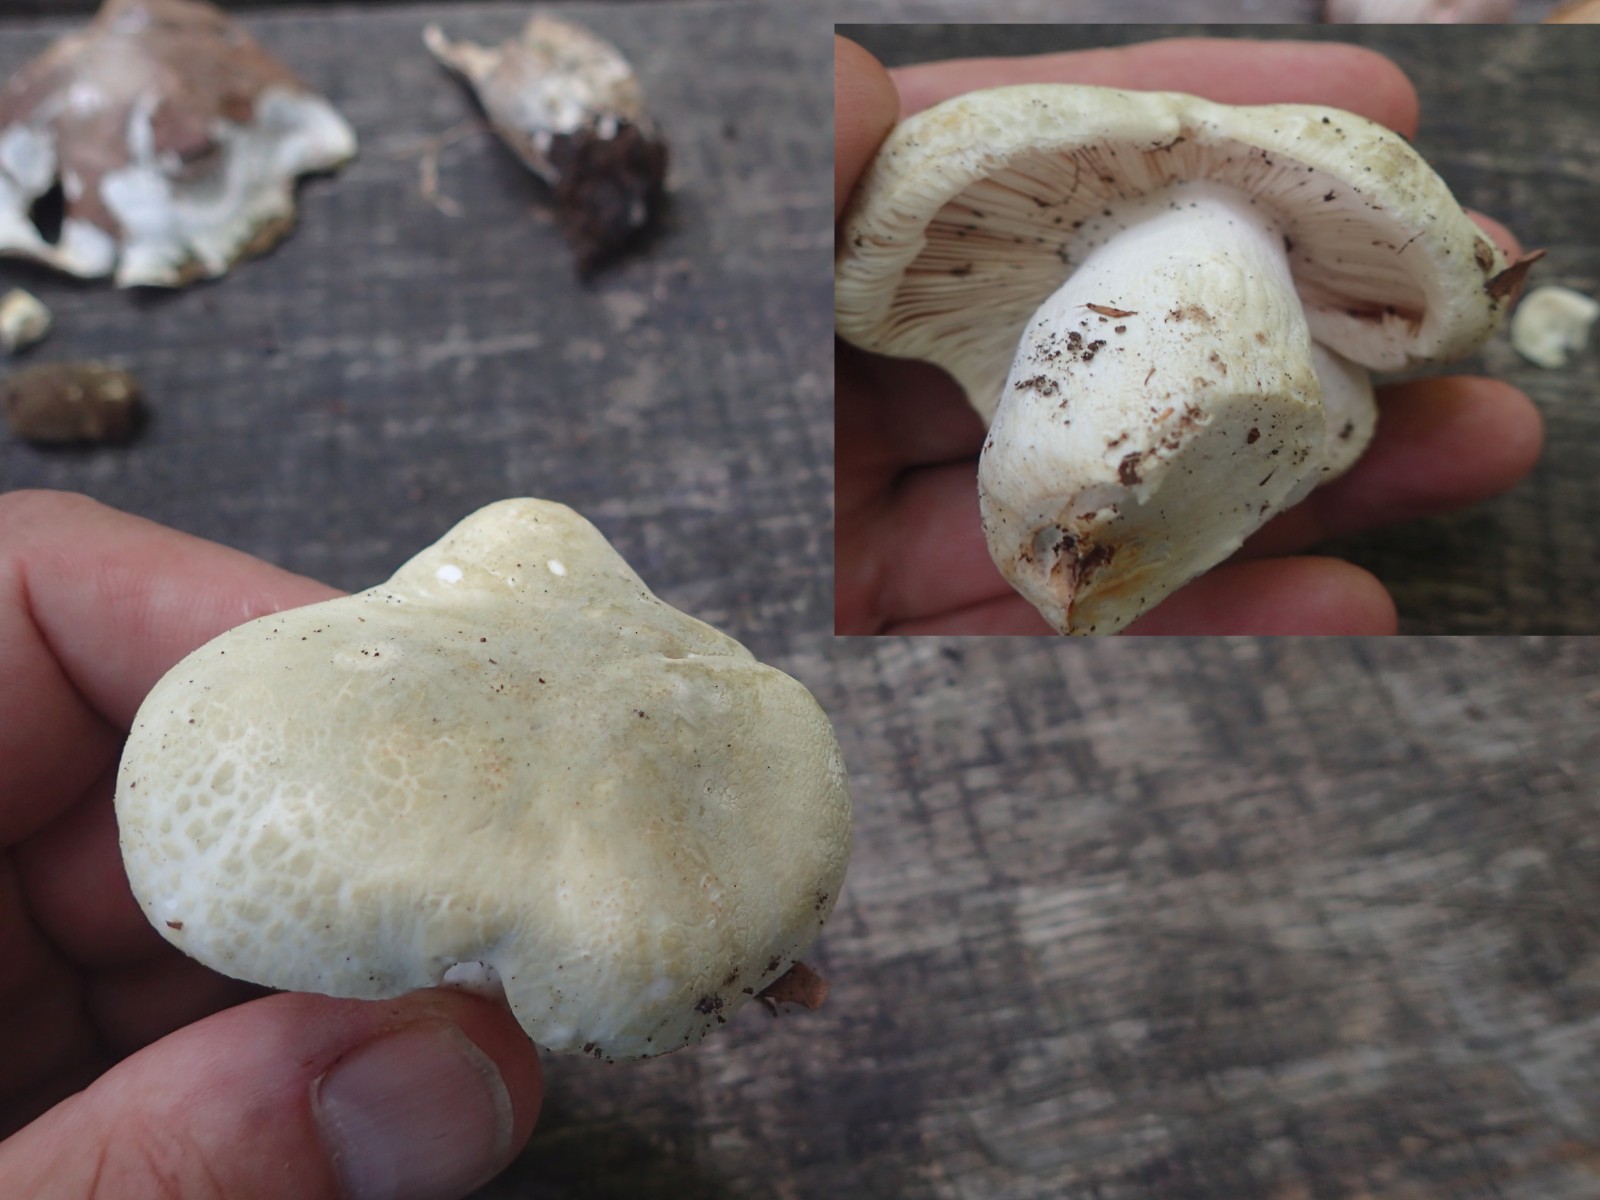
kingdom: Fungi
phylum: Basidiomycota
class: Agaricomycetes
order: Russulales
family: Russulaceae
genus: Russula
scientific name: Russula virescens
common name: spanskgrøn skørhat
